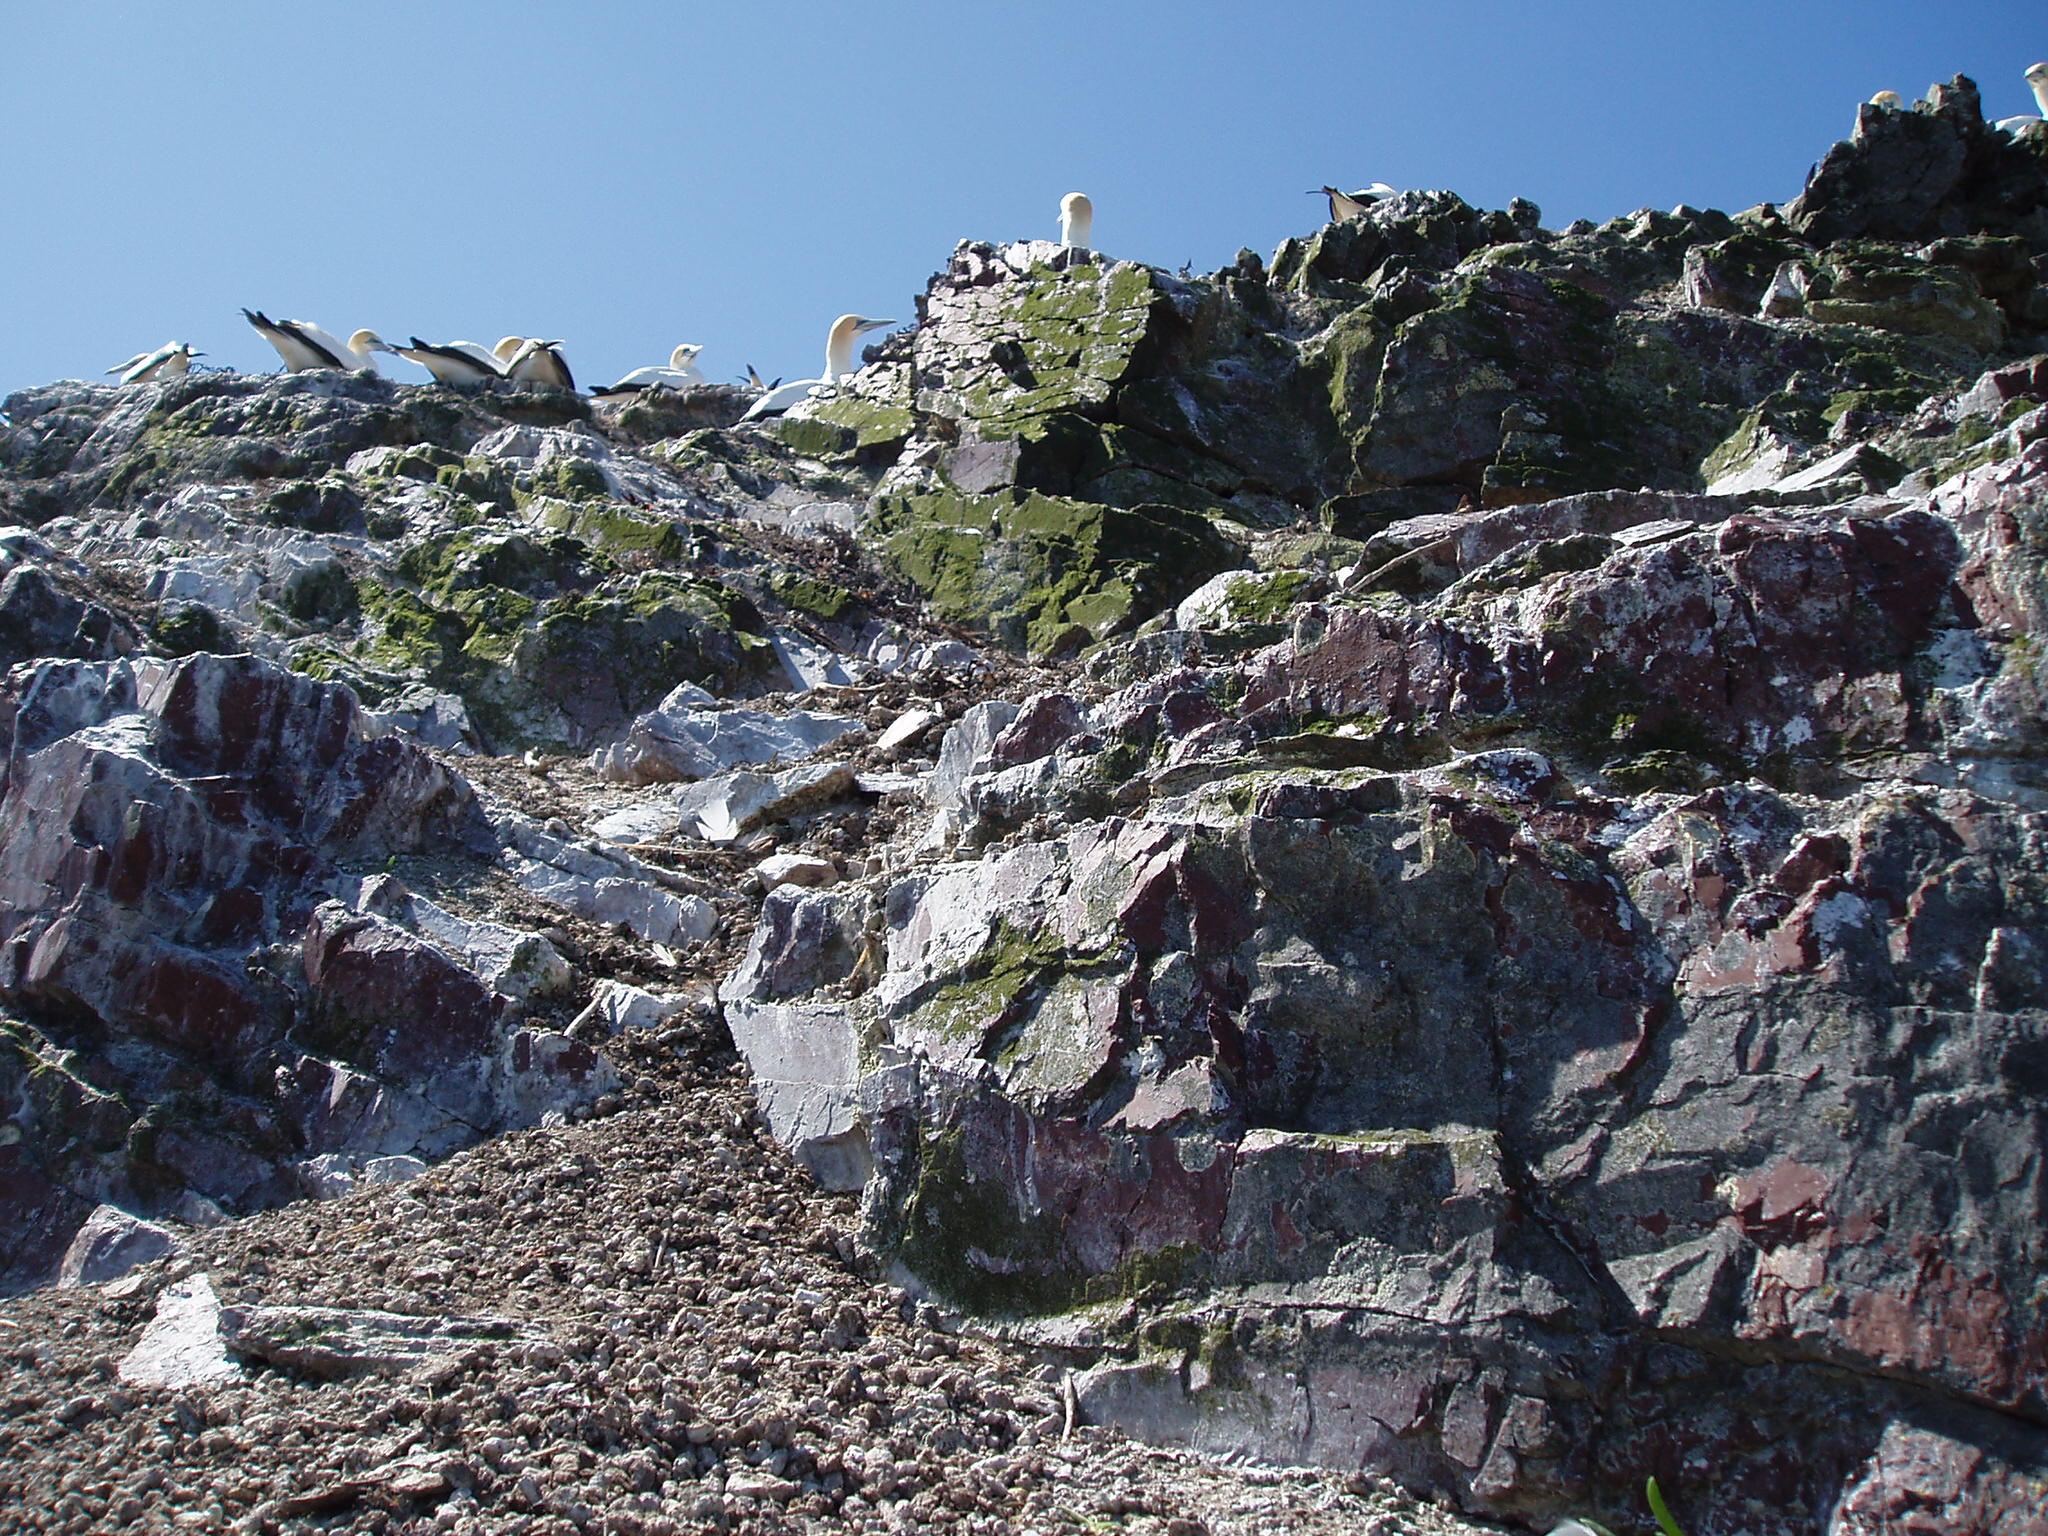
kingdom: Plantae
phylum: Chlorophyta
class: Trebouxiophyceae
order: Prasiolales
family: Prasiolaceae
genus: Prasiola
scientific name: Prasiola stipitata
